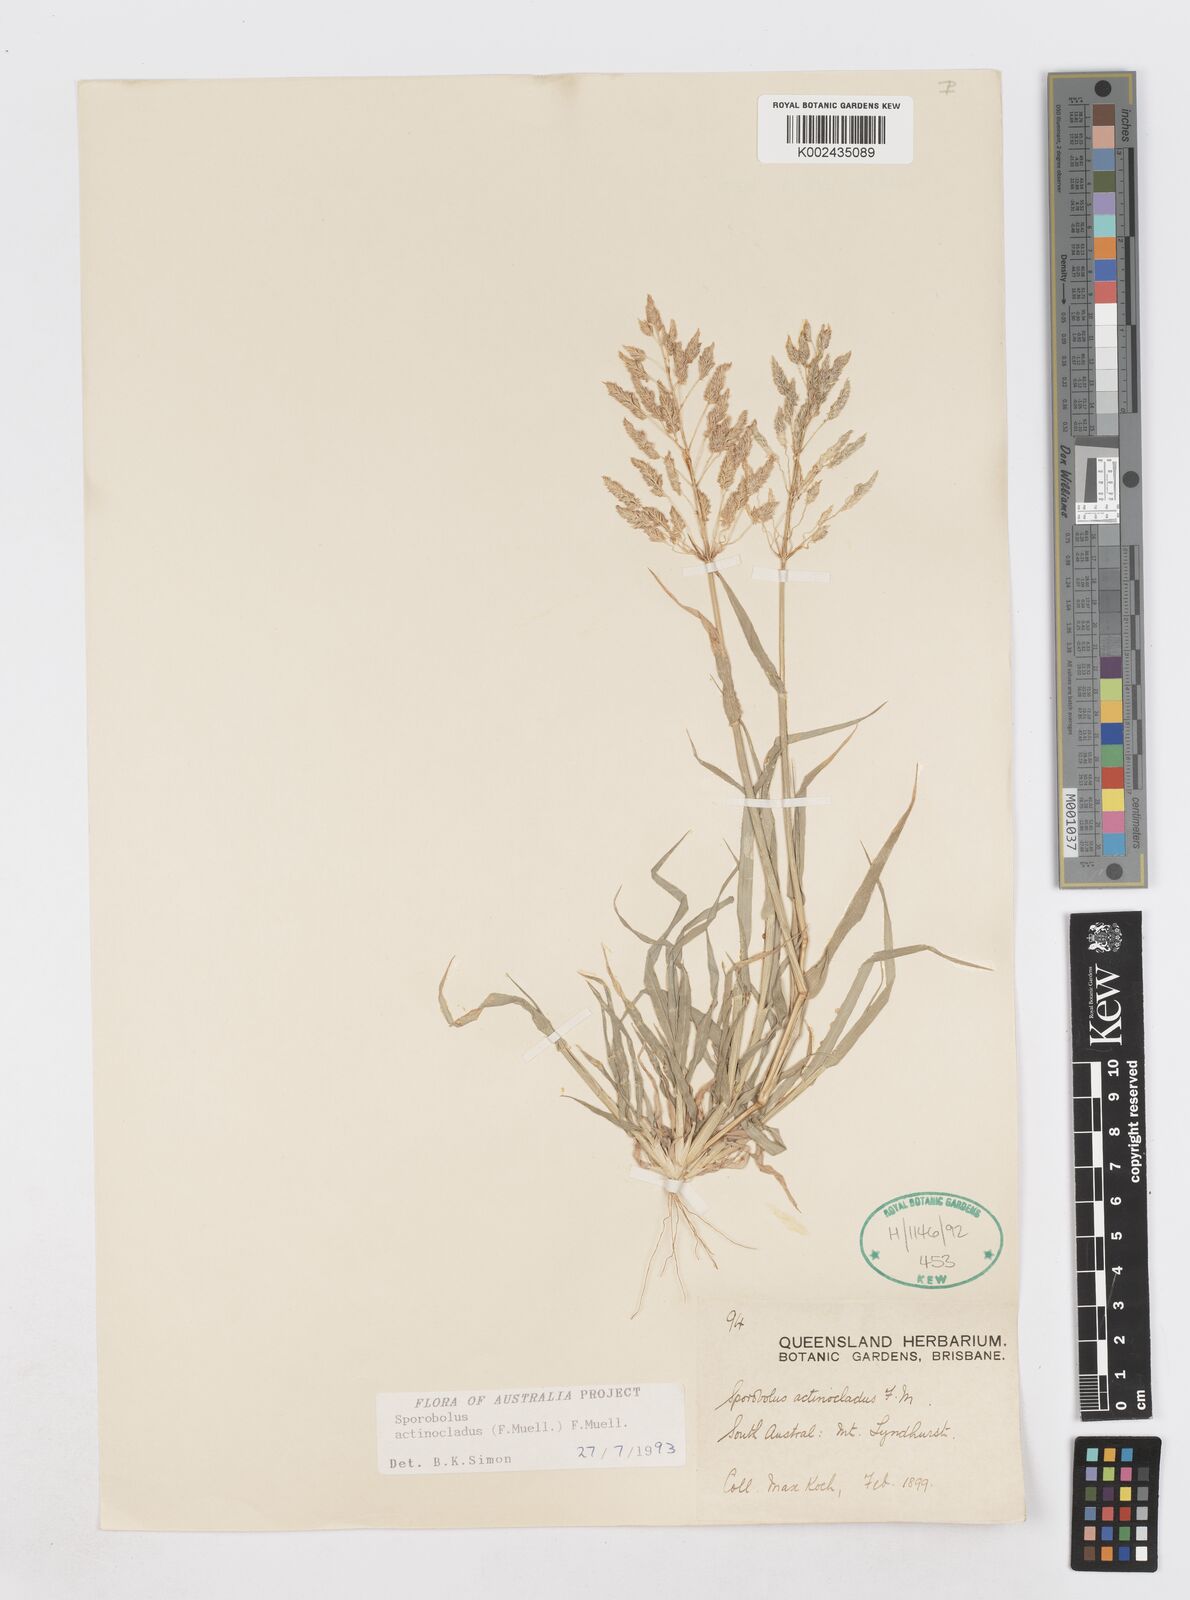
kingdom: Plantae
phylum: Tracheophyta
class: Liliopsida
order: Poales
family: Poaceae
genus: Sporobolus
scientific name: Sporobolus actinocladus
